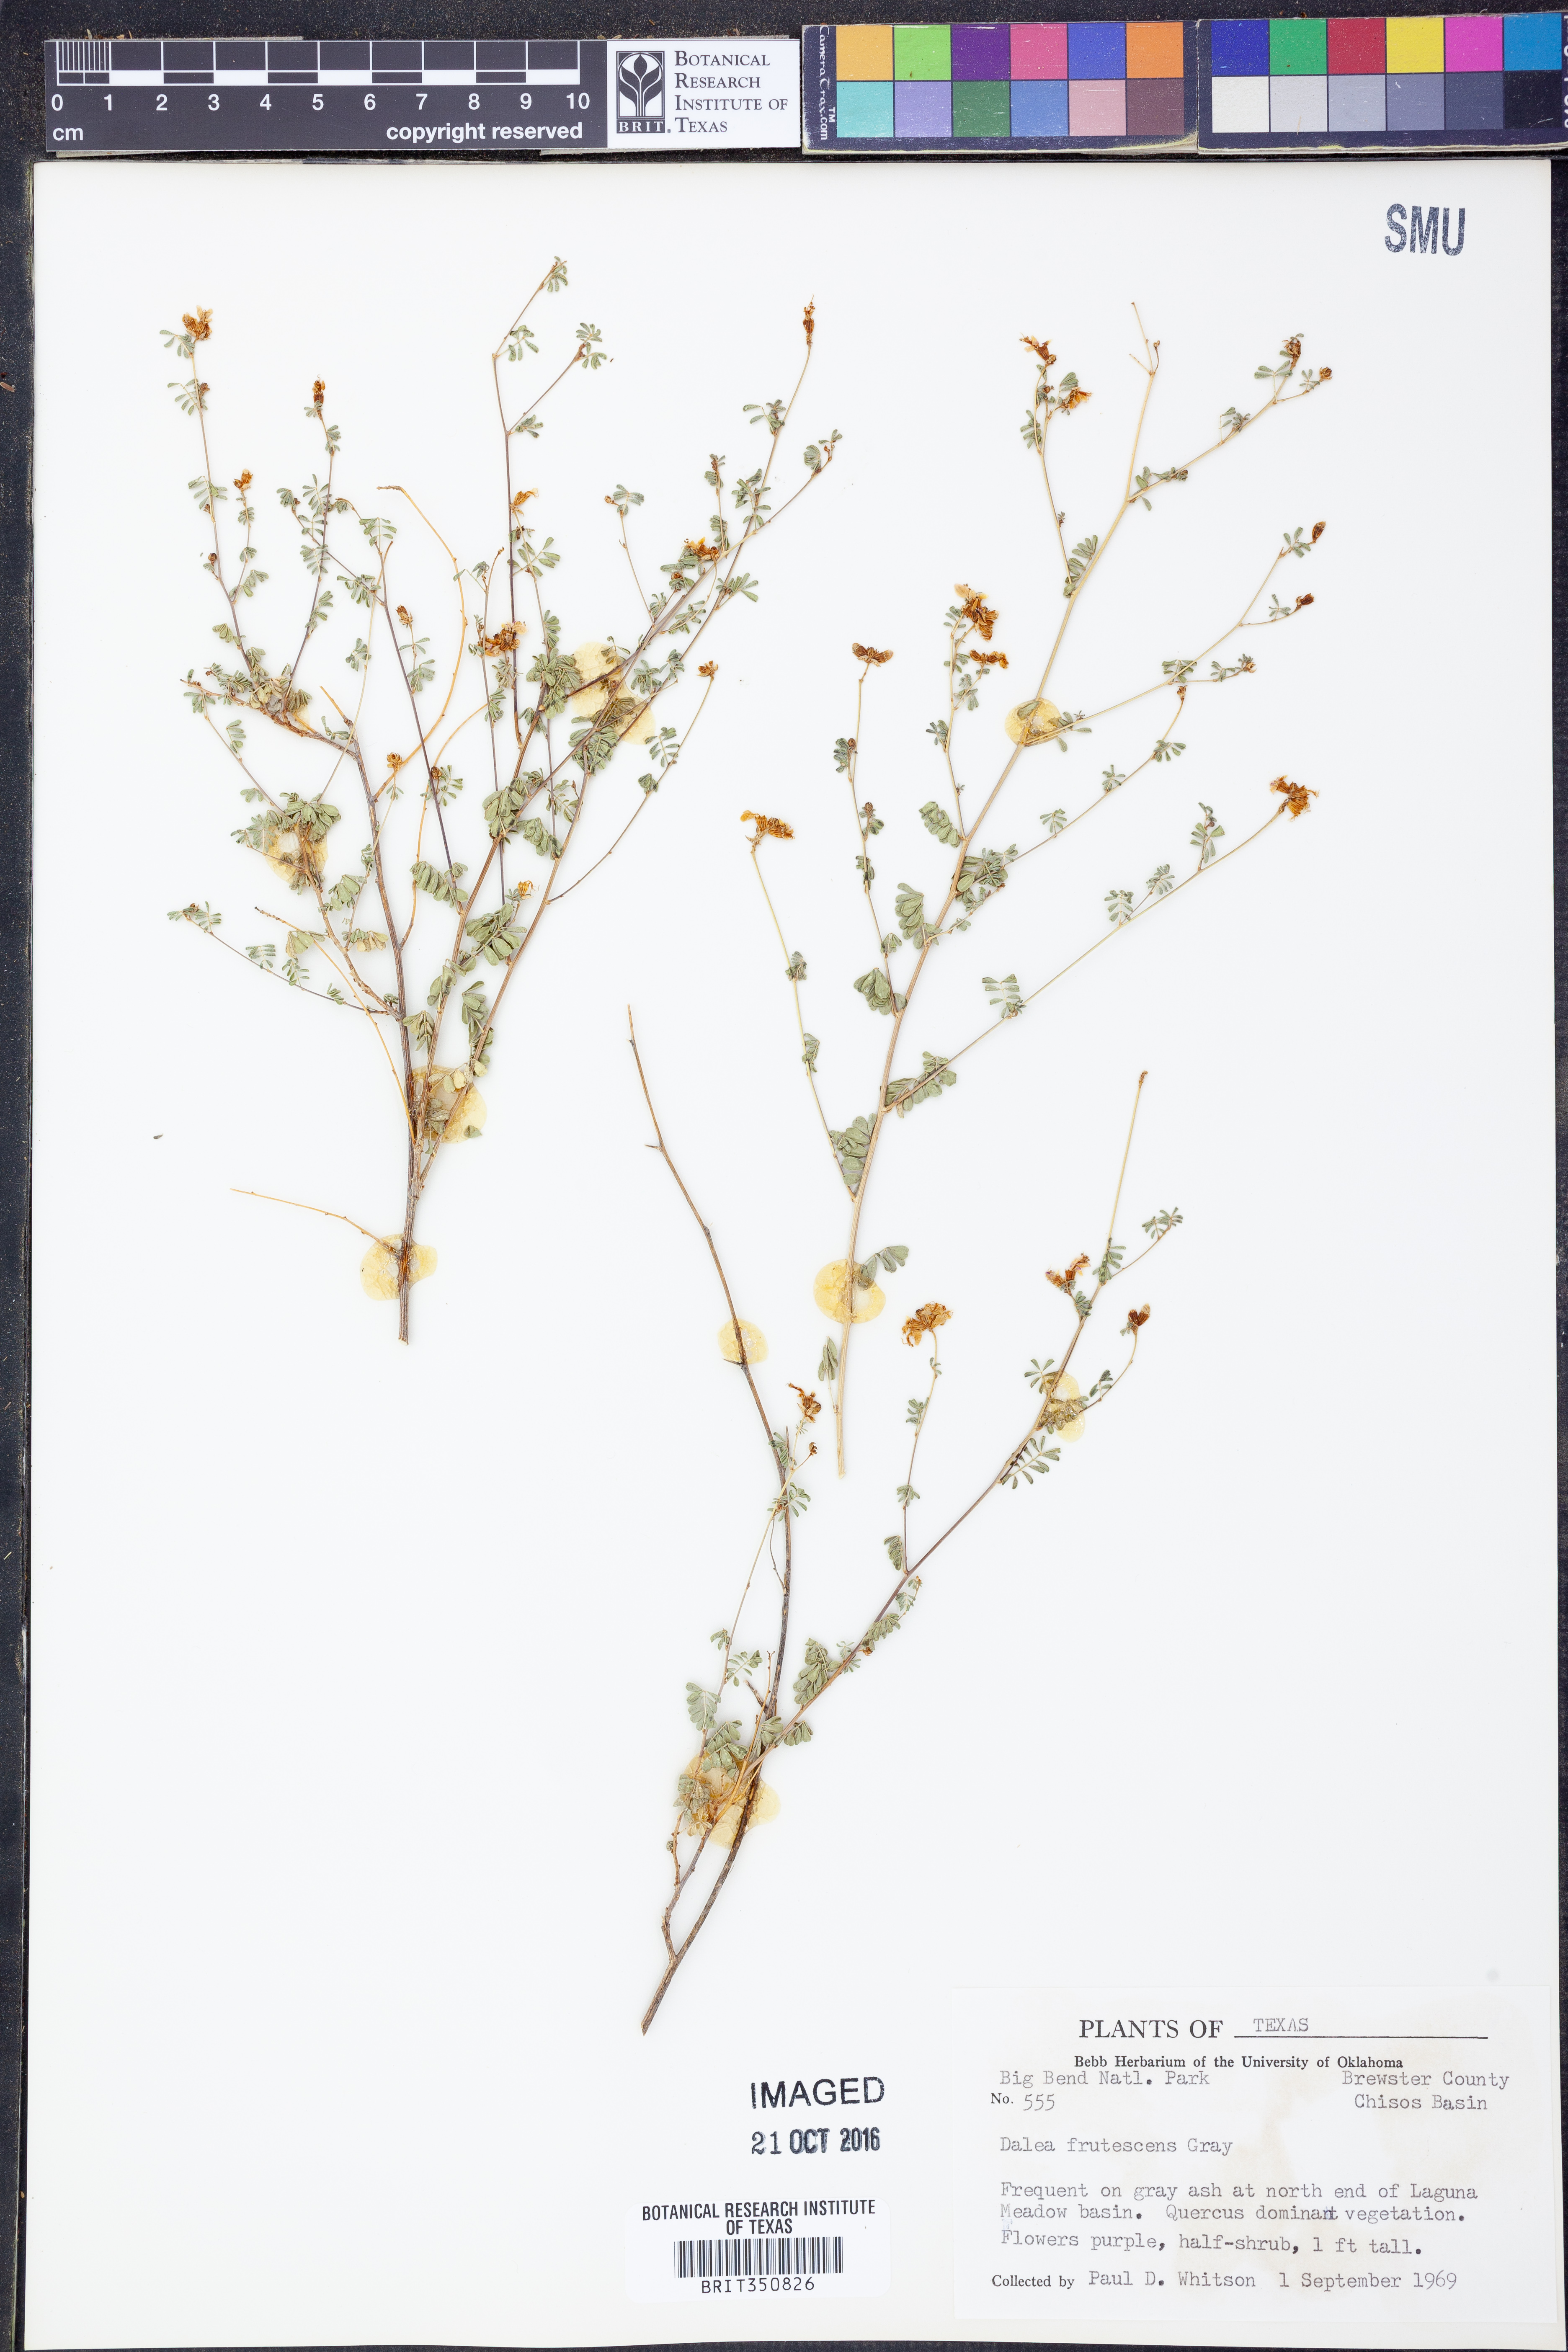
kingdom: Plantae
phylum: Tracheophyta
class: Magnoliopsida
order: Fabales
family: Fabaceae
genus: Dalea
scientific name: Dalea frutescens
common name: Black dalea
